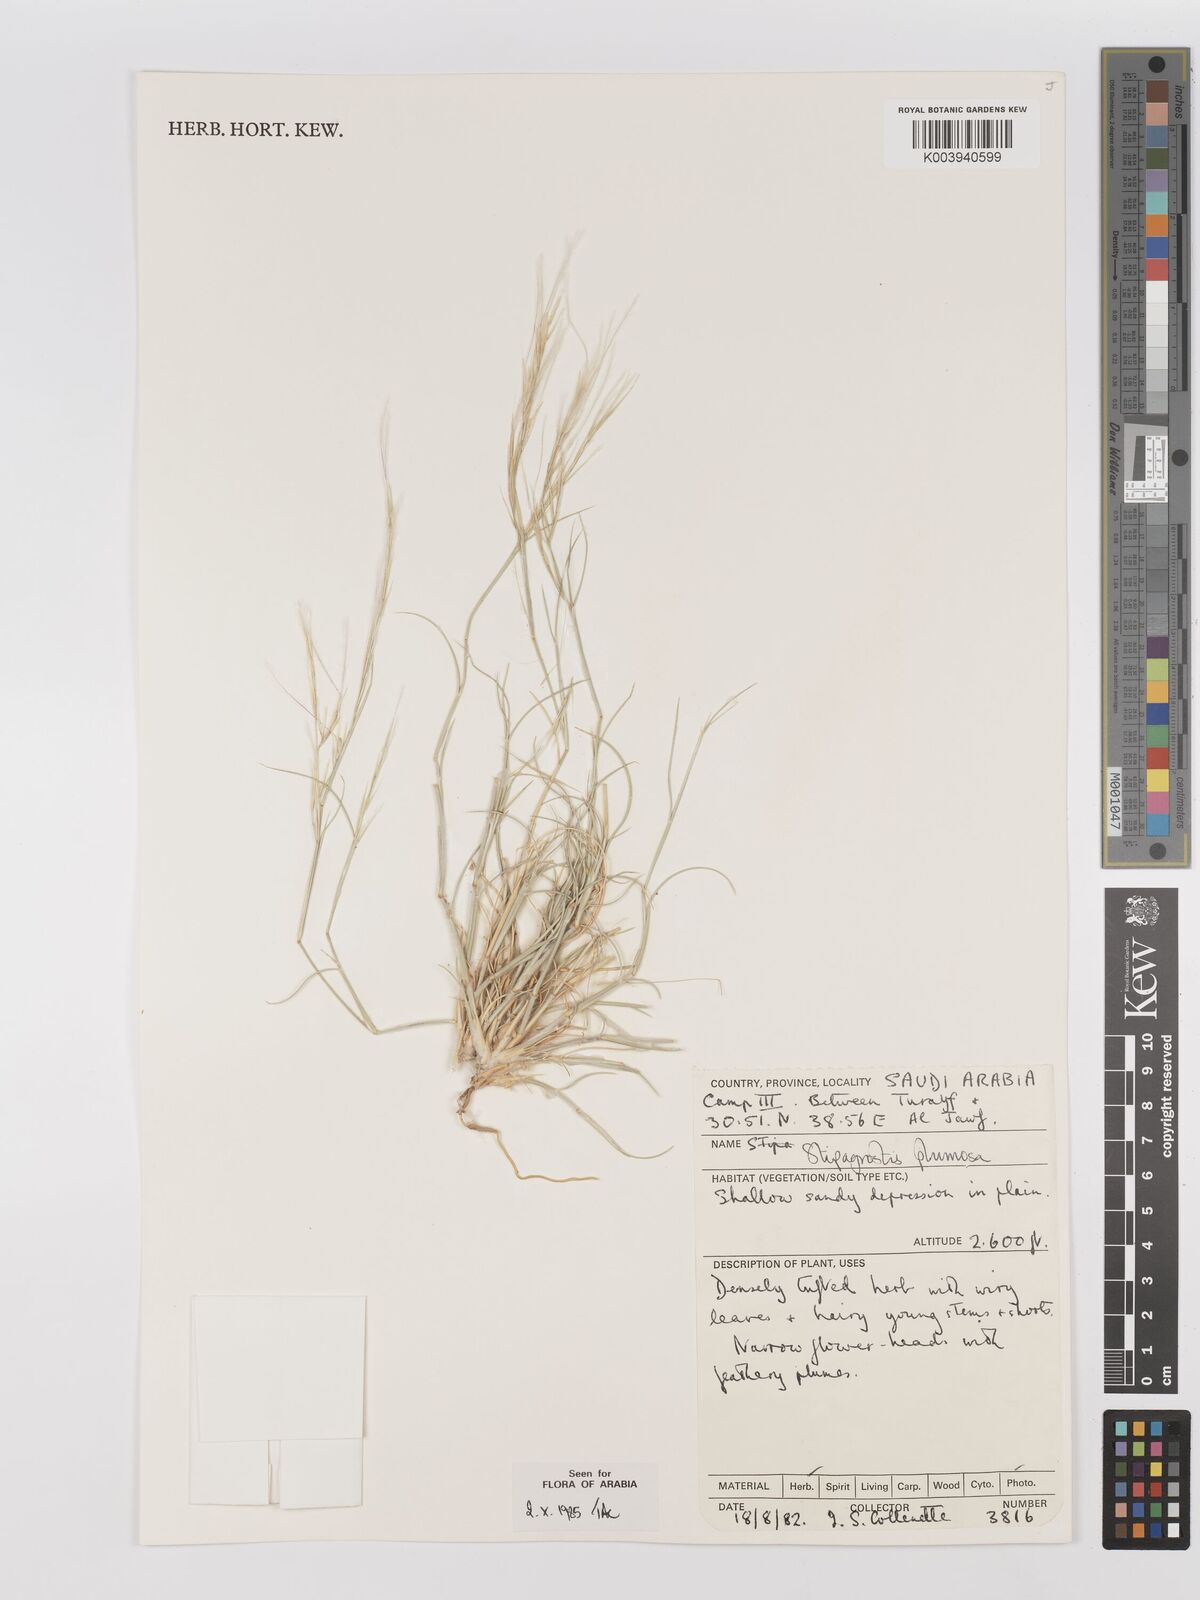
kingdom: Plantae
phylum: Tracheophyta
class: Liliopsida
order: Poales
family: Poaceae
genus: Stipagrostis
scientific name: Stipagrostis plumosa
